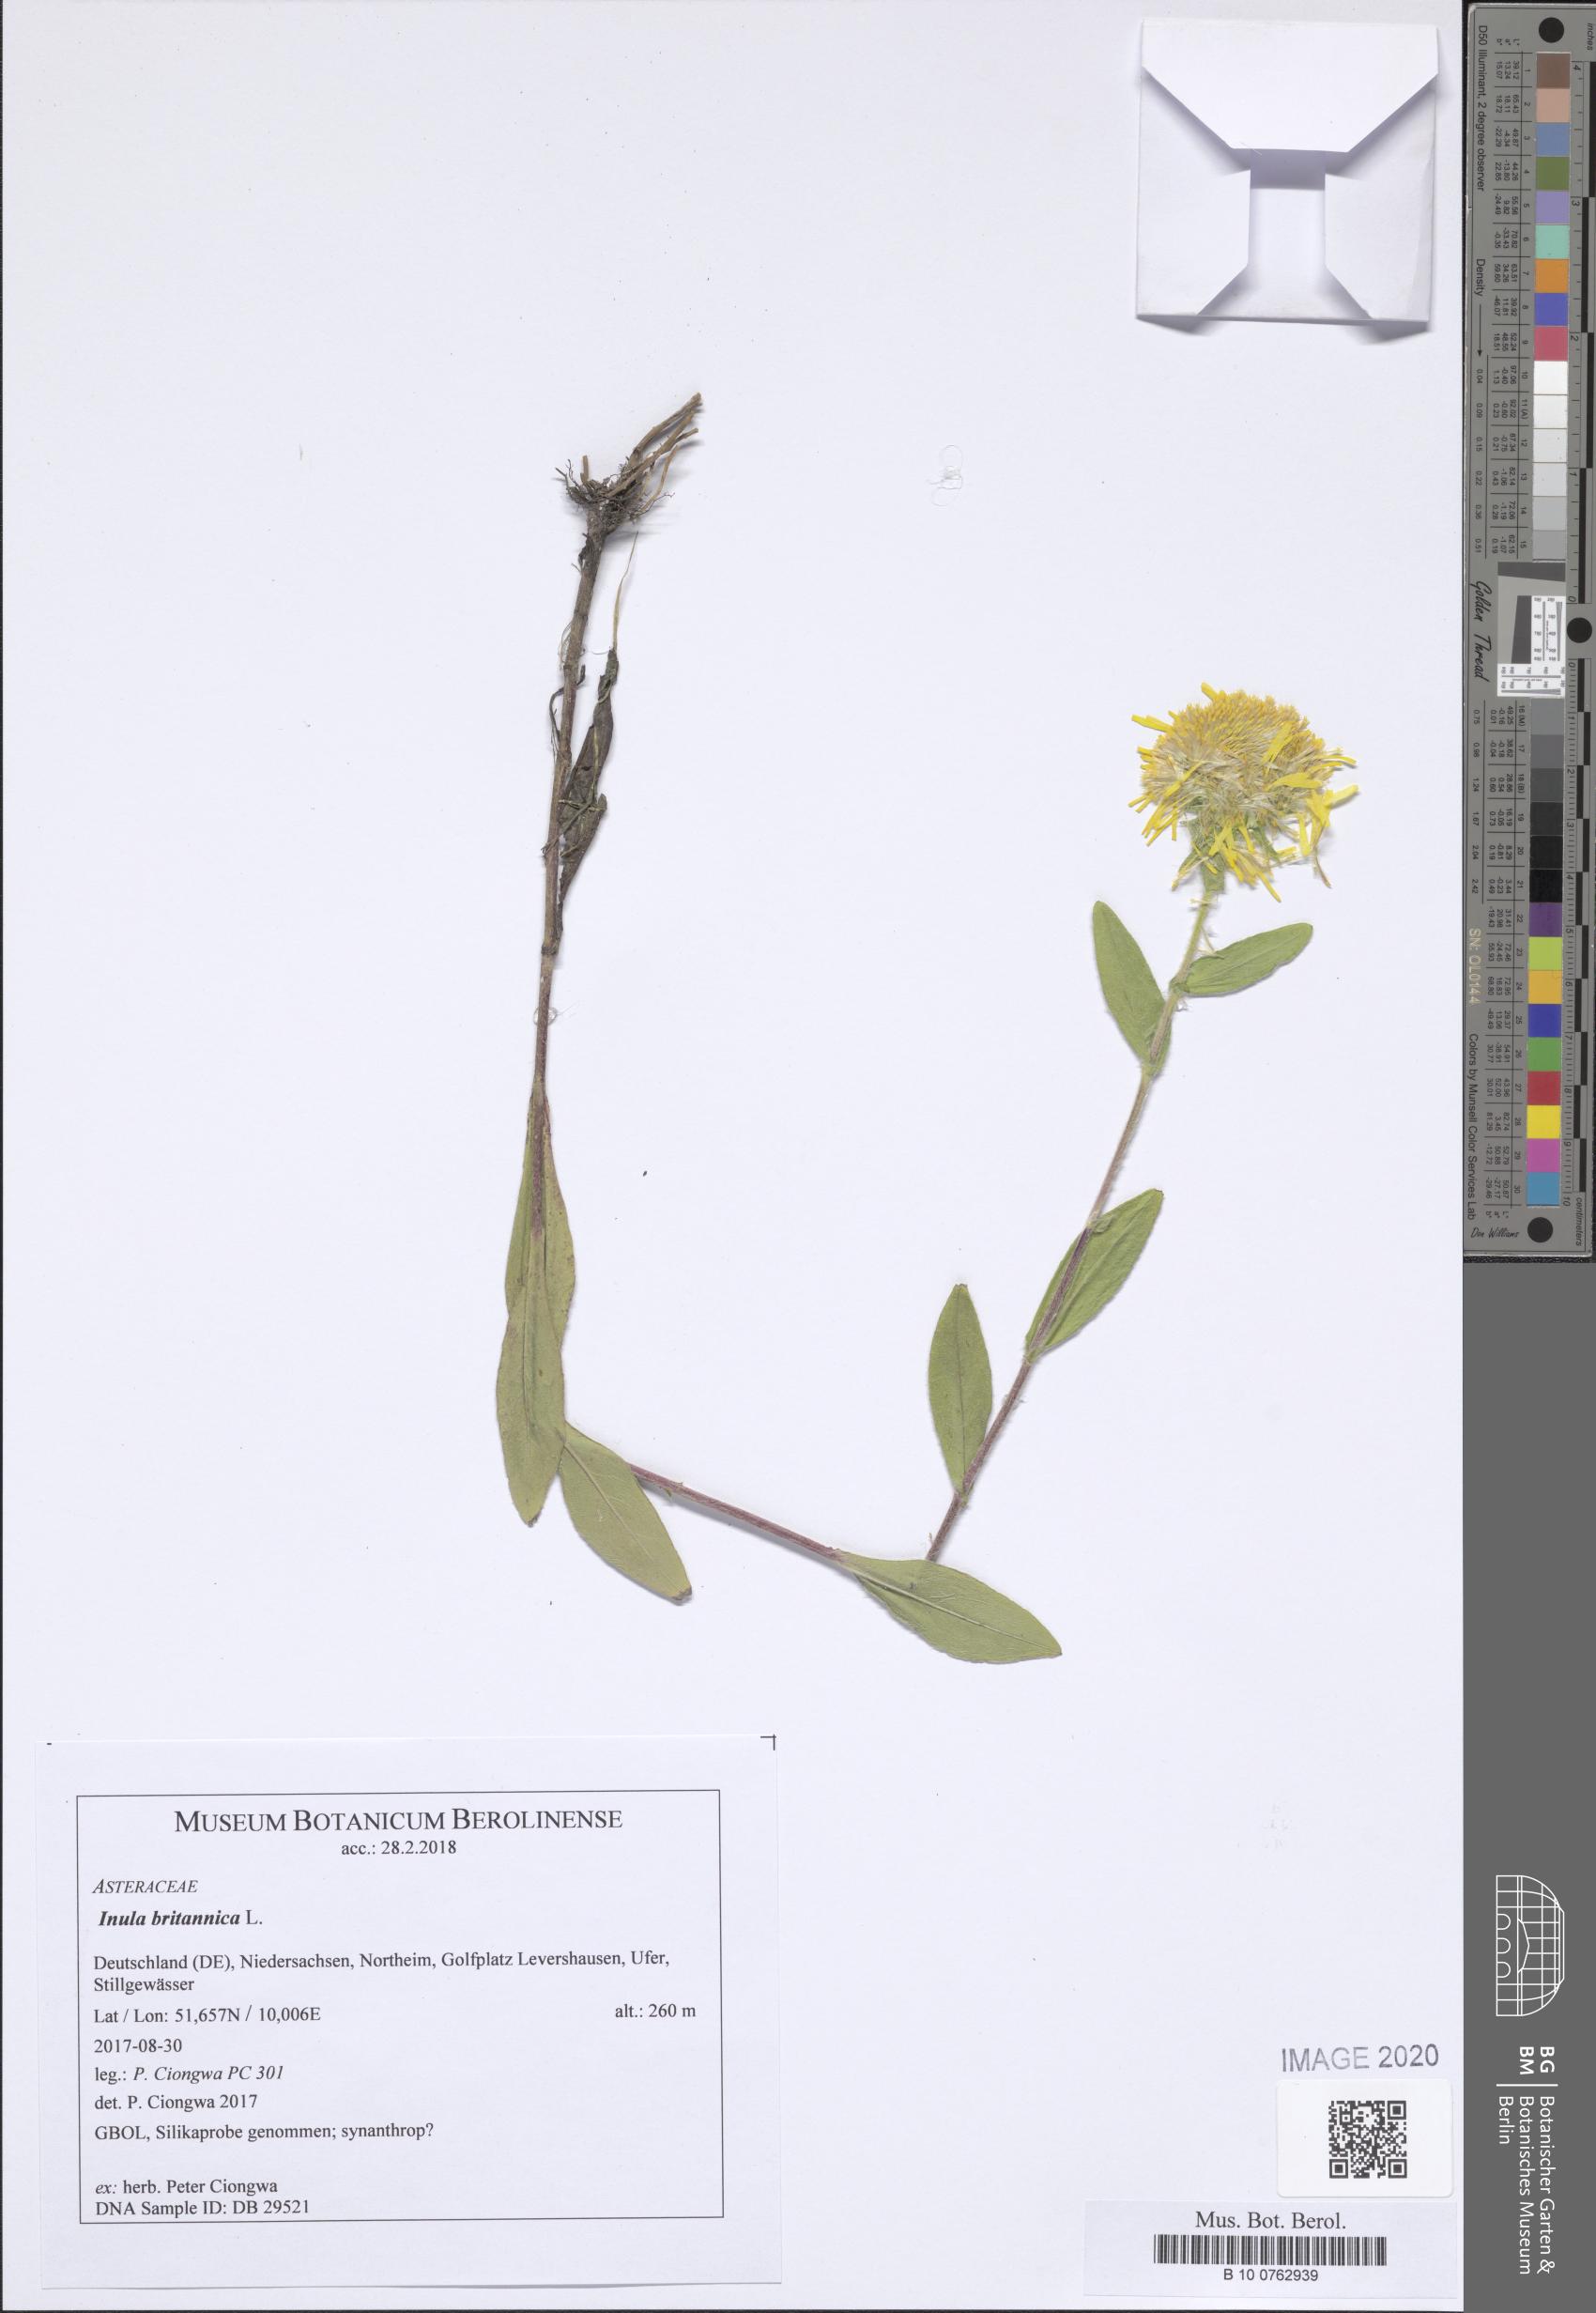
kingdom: Plantae
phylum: Tracheophyta
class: Magnoliopsida
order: Asterales
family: Asteraceae
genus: Pentanema
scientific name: Pentanema britannicum
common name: British elecampane
